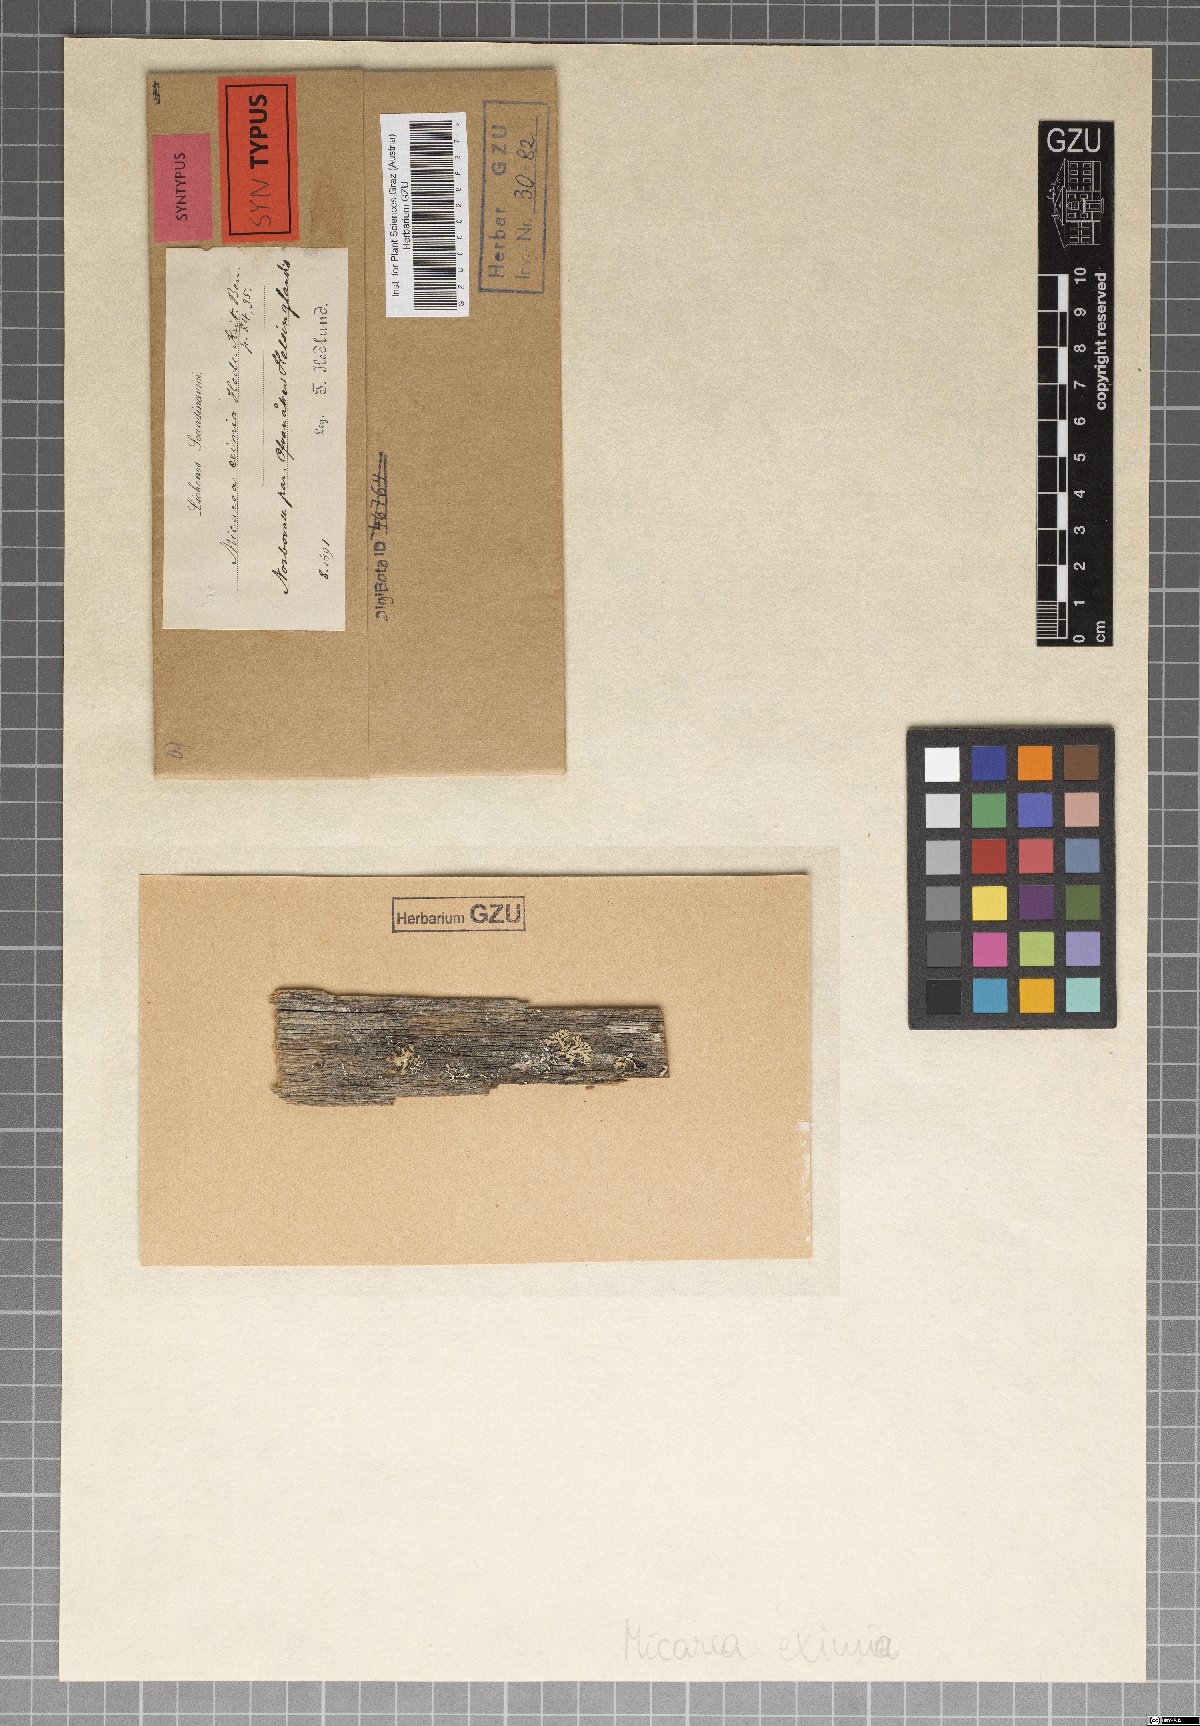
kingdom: Fungi
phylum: Ascomycota
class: Lecanoromycetes
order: Lecanorales
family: Byssolomataceae
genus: Micarea
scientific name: Micarea eximia
